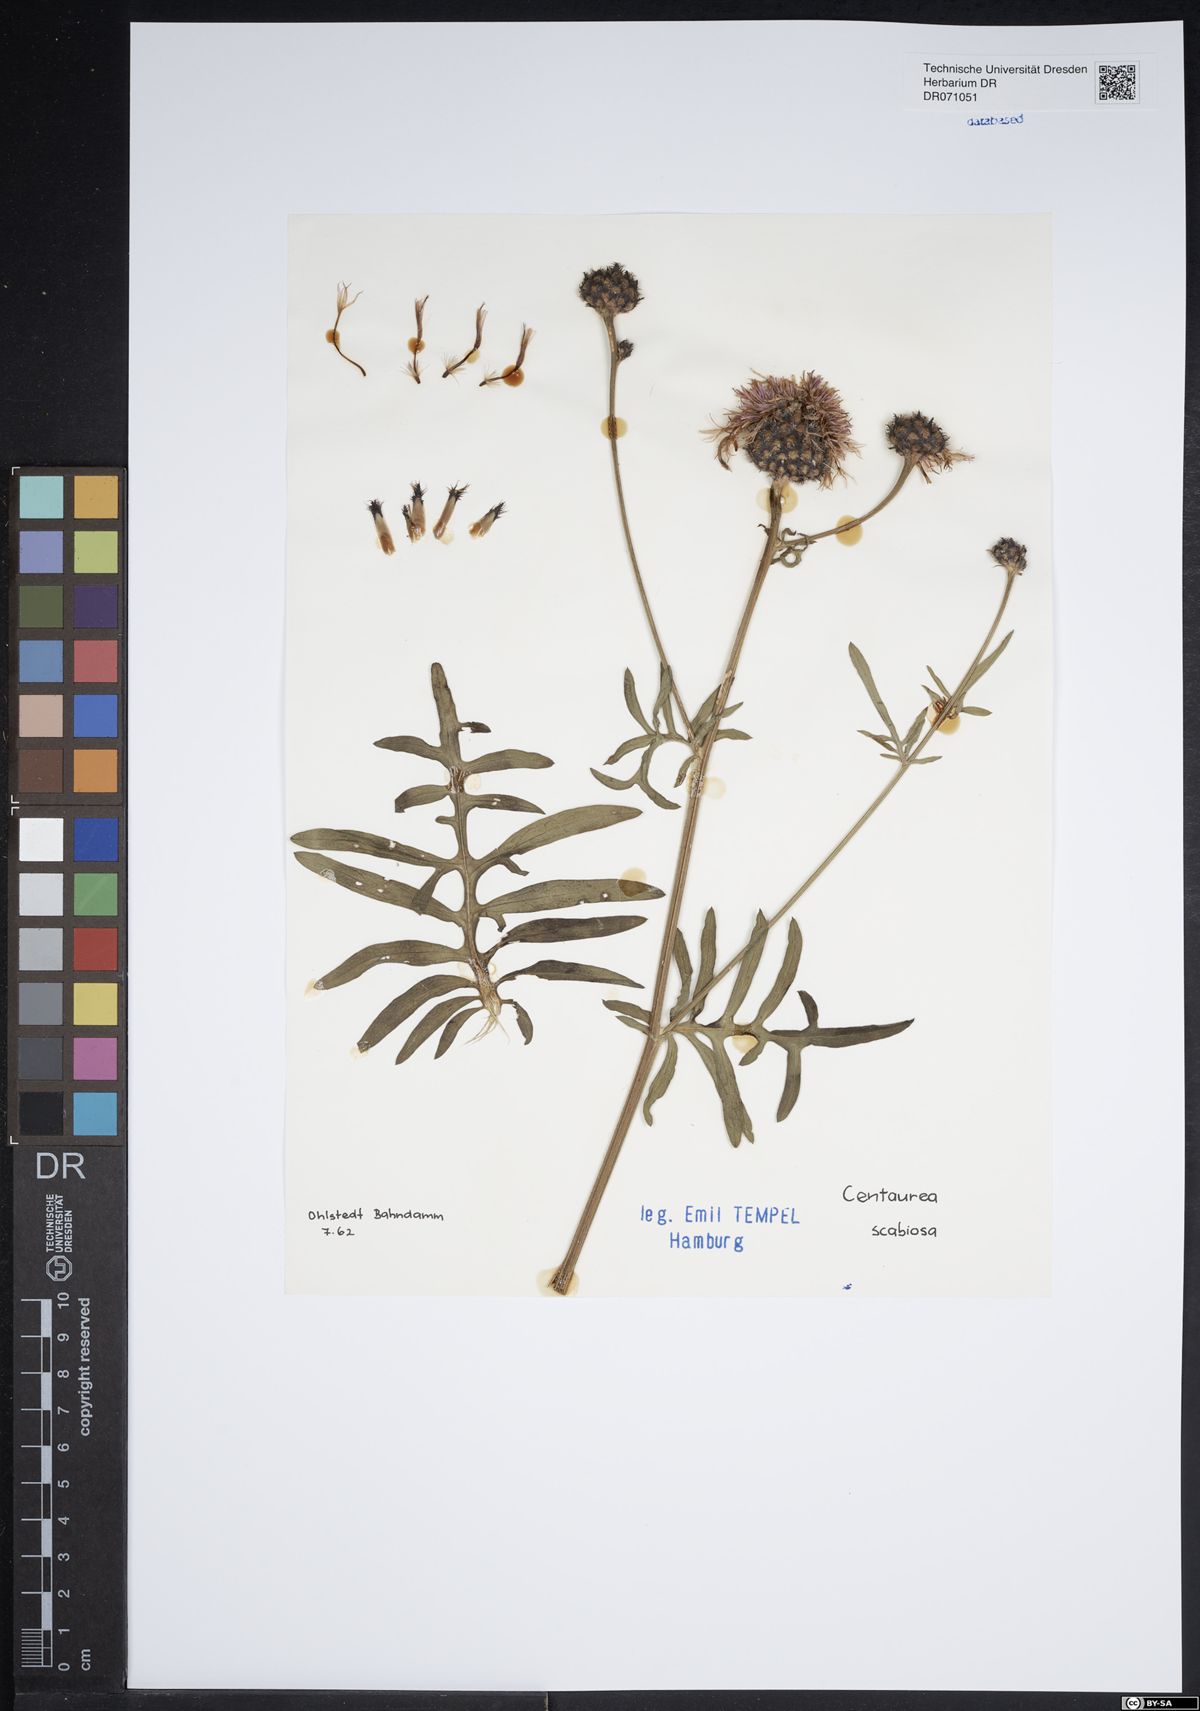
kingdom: Plantae
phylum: Tracheophyta
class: Magnoliopsida
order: Asterales
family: Asteraceae
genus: Centaurea
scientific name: Centaurea scabiosa
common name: Greater knapweed
